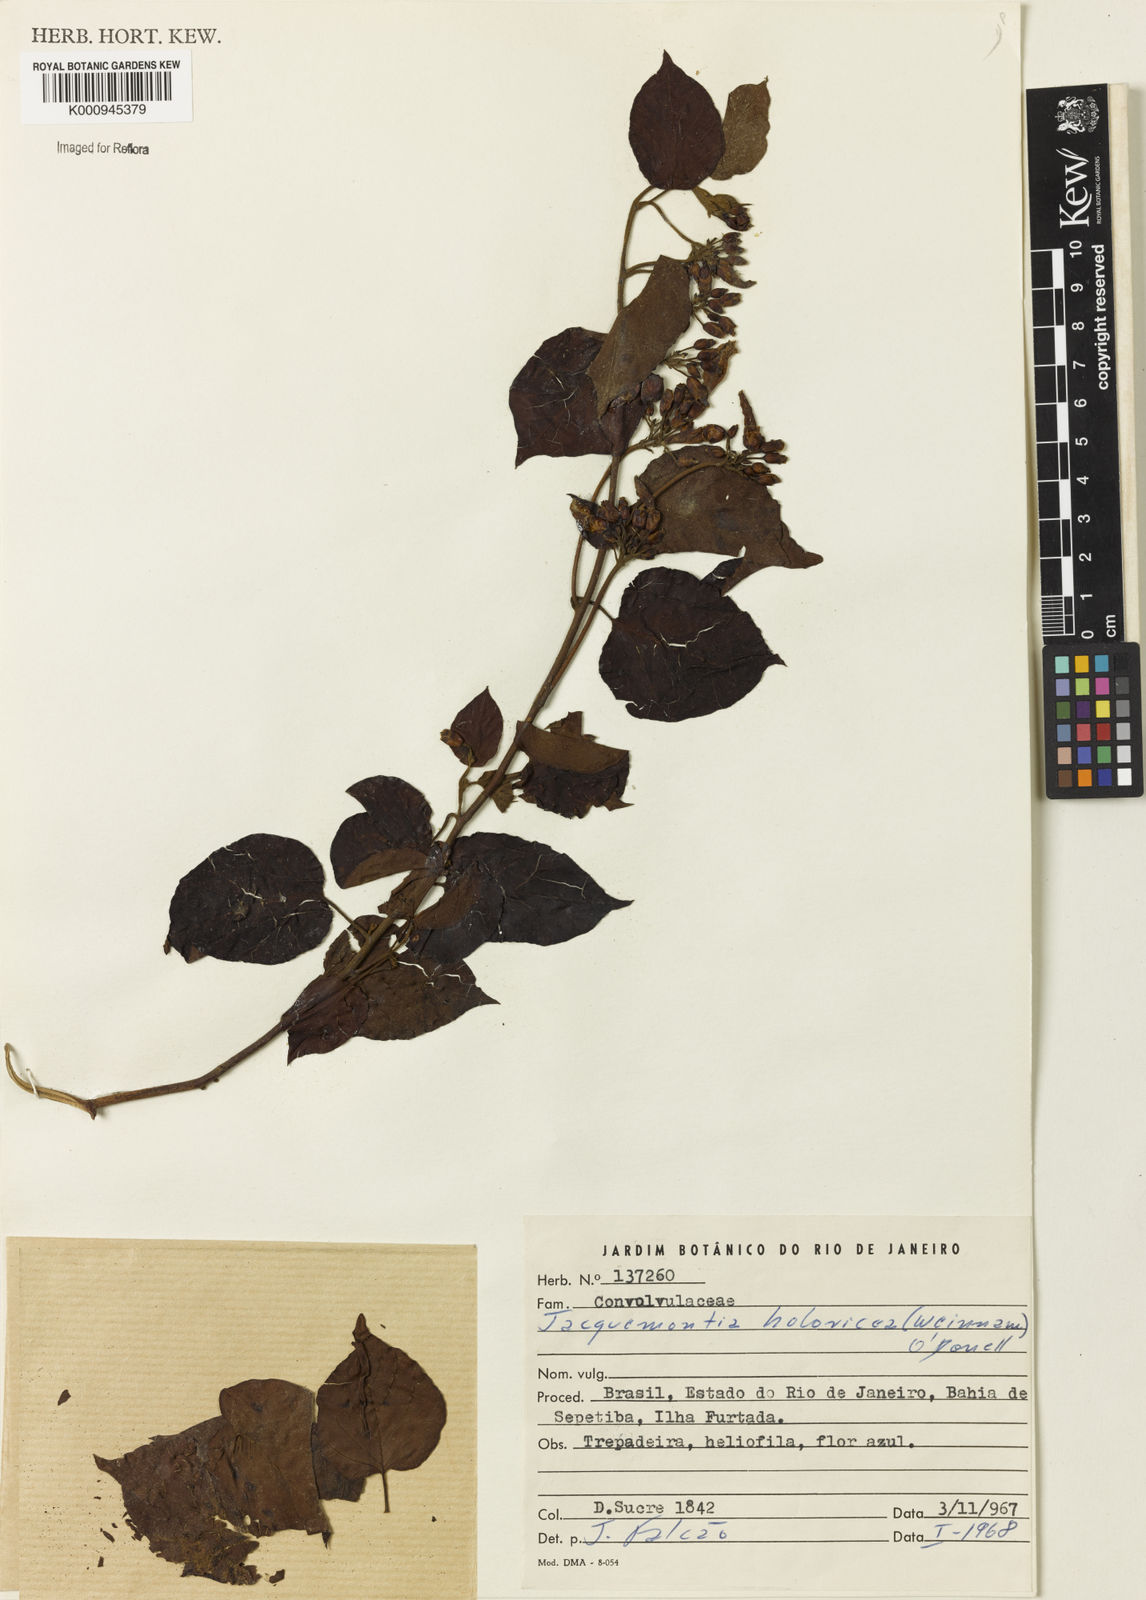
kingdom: Plantae
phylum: Tracheophyta
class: Magnoliopsida
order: Solanales
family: Convolvulaceae
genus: Jacquemontia
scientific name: Jacquemontia holosericea
